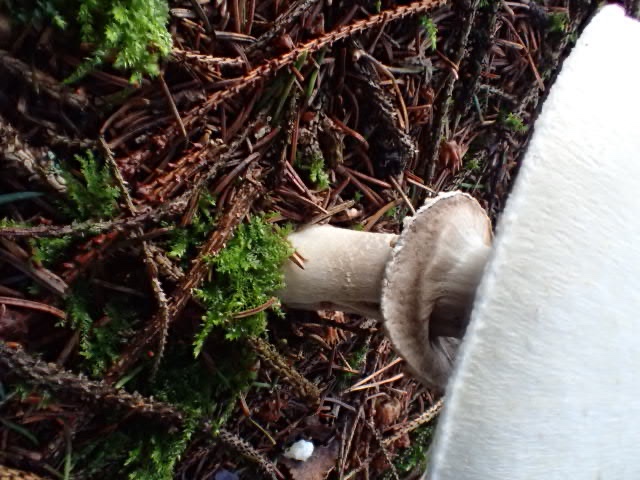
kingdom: Fungi
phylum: Basidiomycota
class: Agaricomycetes
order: Agaricales
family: Agaricaceae
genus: Agaricus
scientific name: Agaricus
